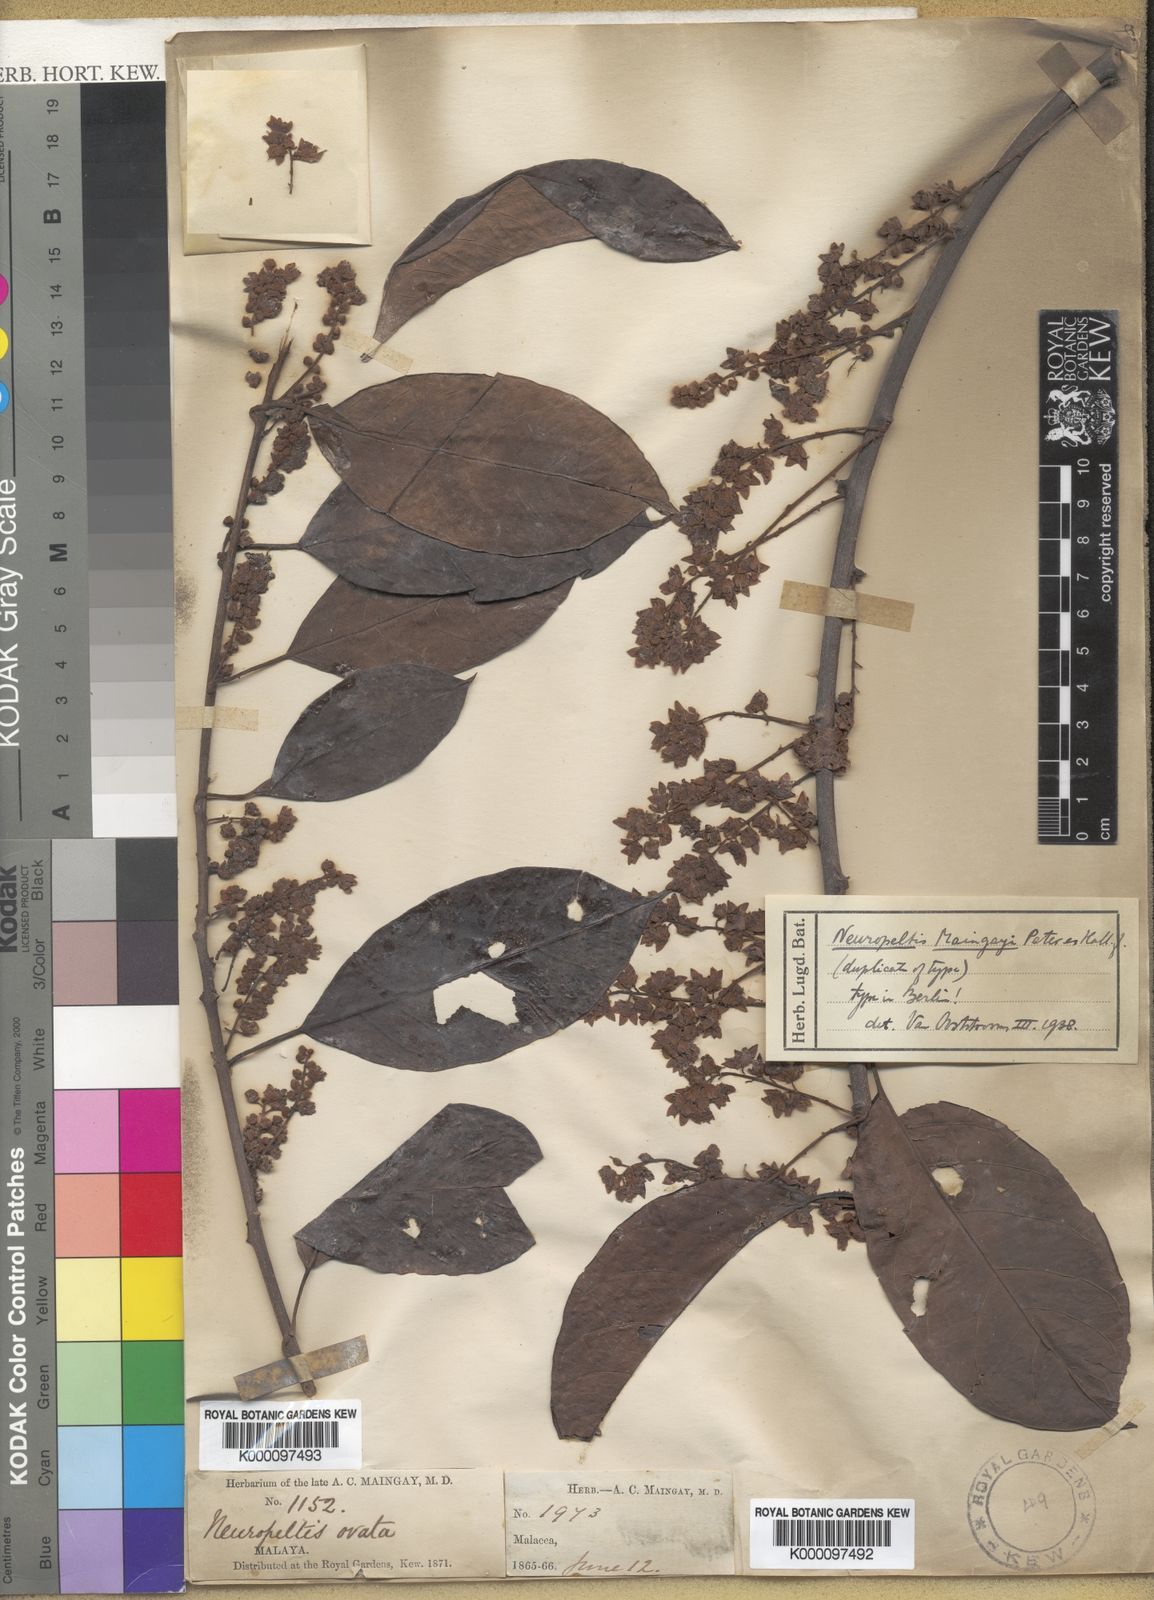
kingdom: Plantae
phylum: Tracheophyta
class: Magnoliopsida
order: Solanales
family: Convolvulaceae
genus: Neuropeltis
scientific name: Neuropeltis maingayi
